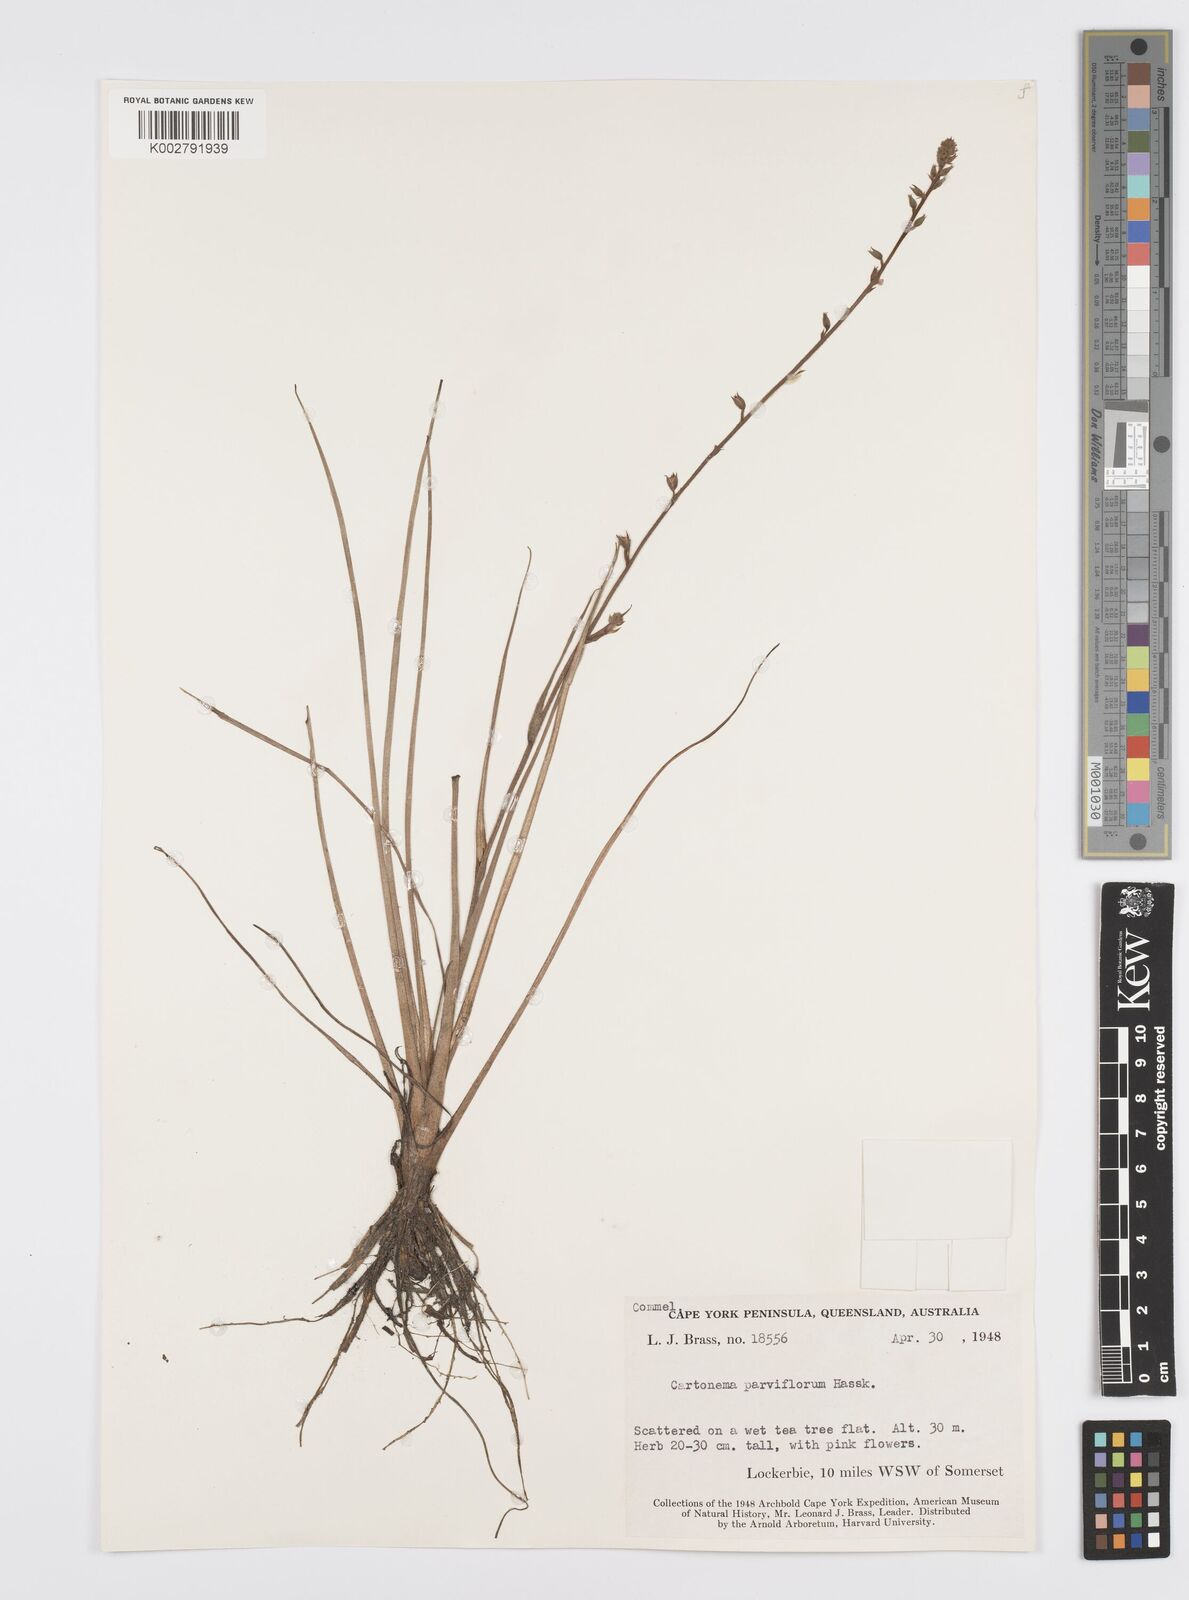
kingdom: Plantae
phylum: Tracheophyta
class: Liliopsida
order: Commelinales
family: Commelinaceae
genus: Cartonema
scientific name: Cartonema parviflorum
